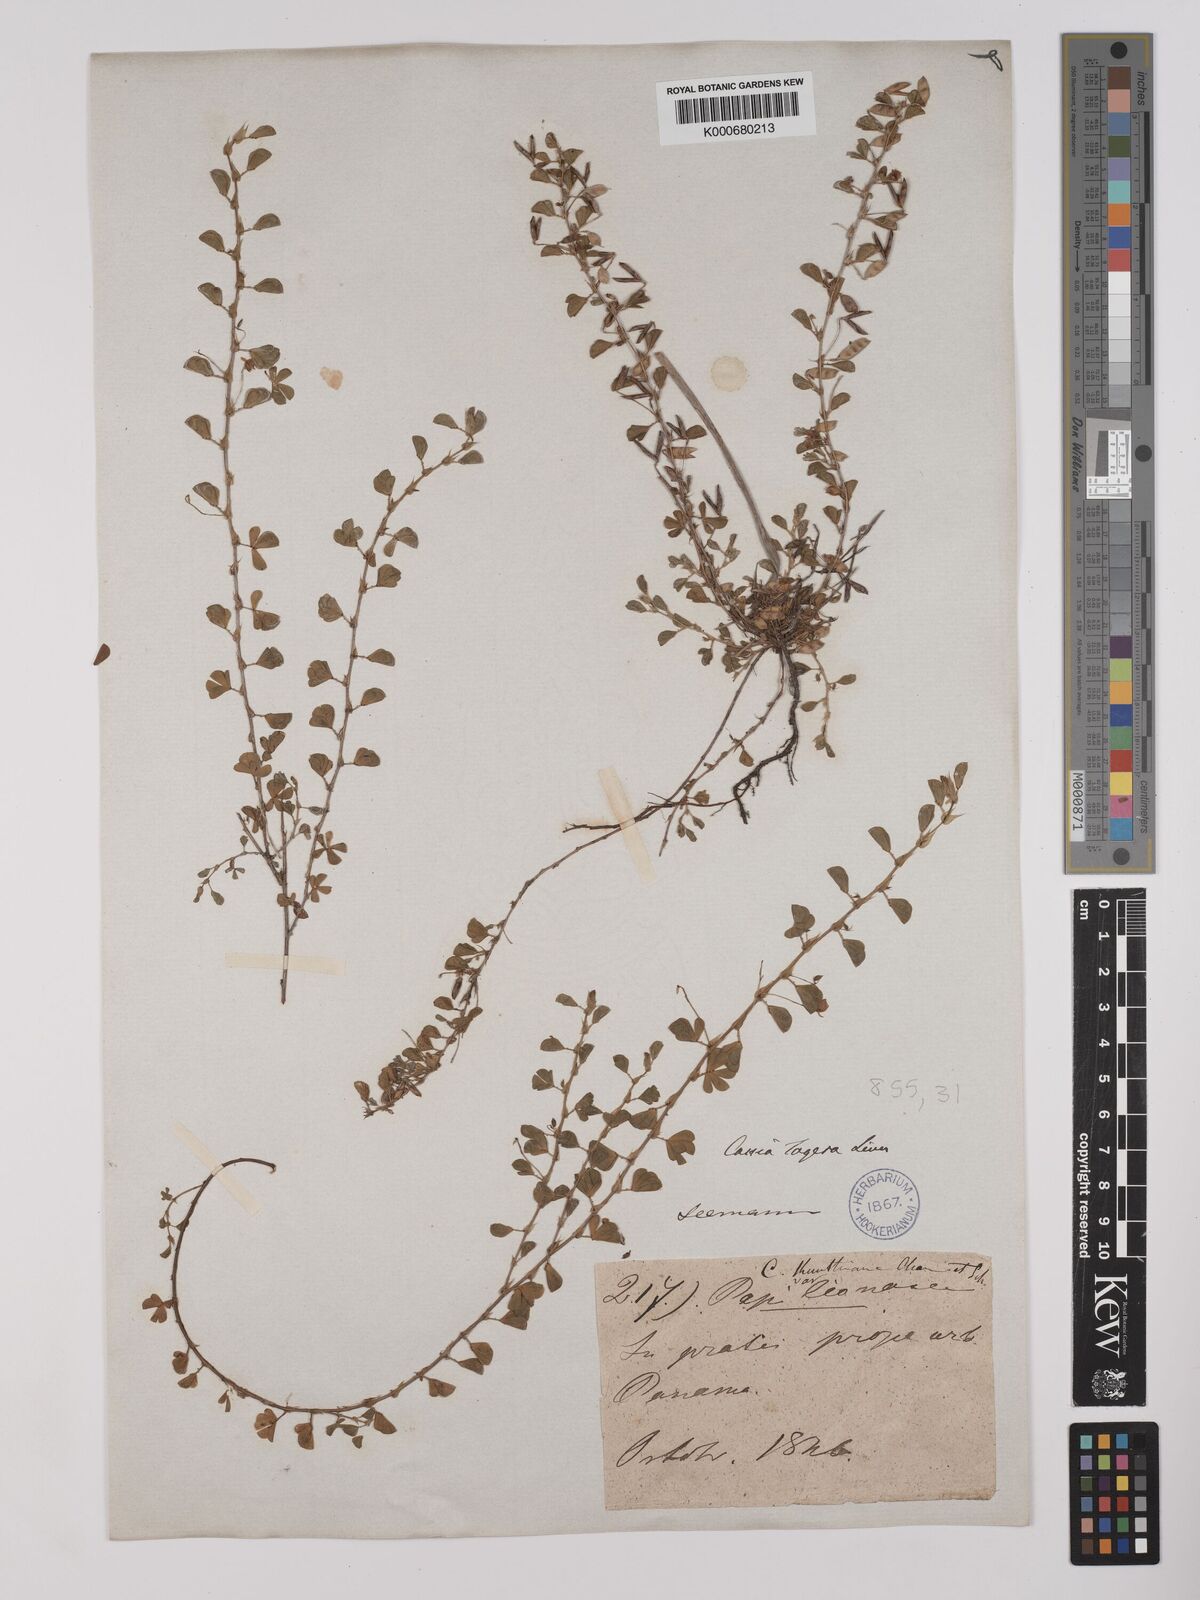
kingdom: Plantae
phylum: Tracheophyta
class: Magnoliopsida
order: Fabales
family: Fabaceae
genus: Chamaecrista
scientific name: Chamaecrista kunthiana
